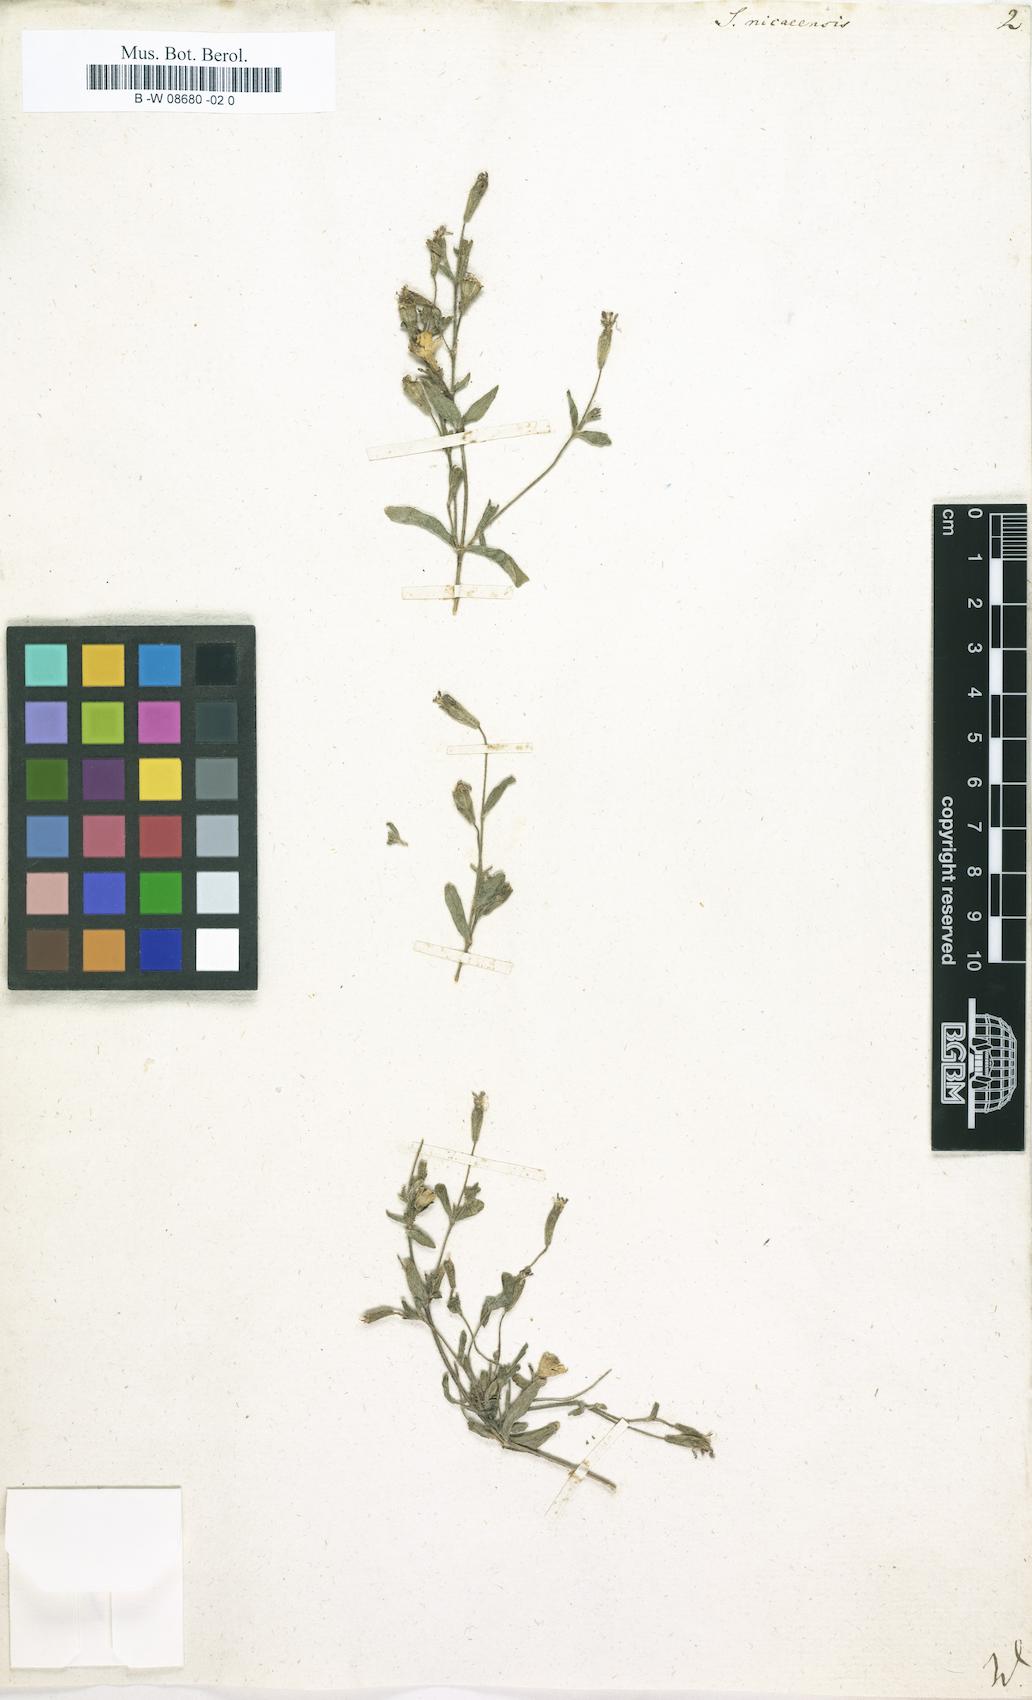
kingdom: Plantae
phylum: Tracheophyta
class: Magnoliopsida
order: Caryophyllales
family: Caryophyllaceae
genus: Silene
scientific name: Silene nicaeensis
